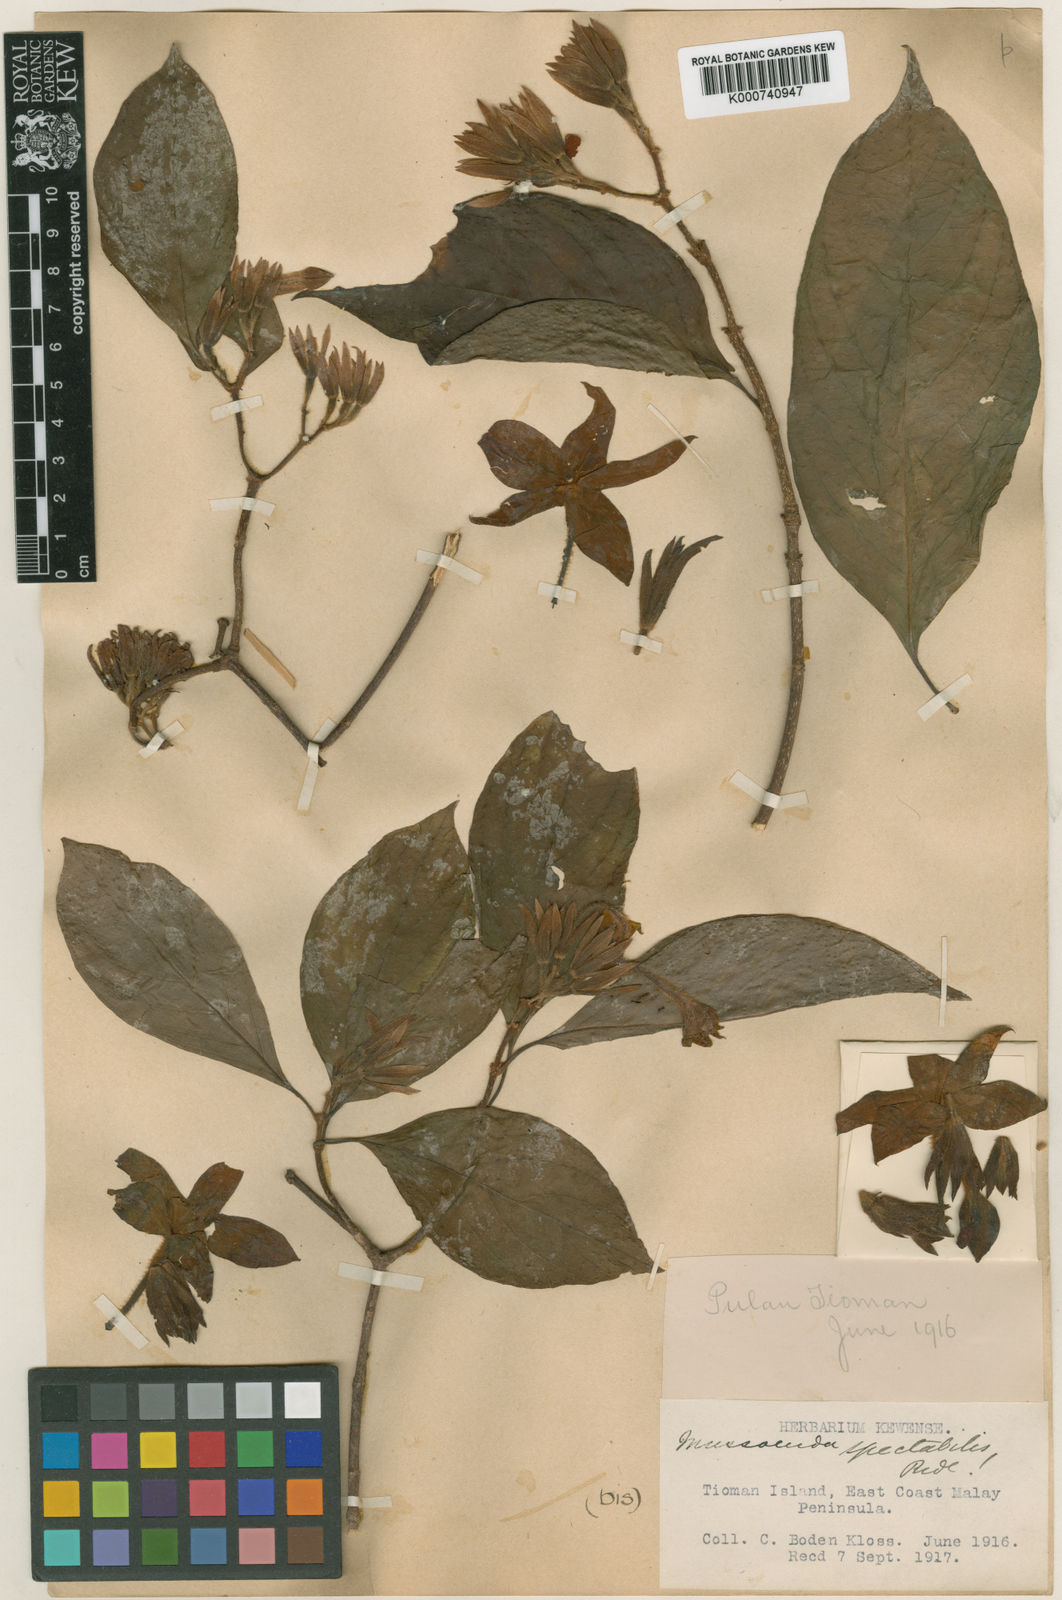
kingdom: Plantae
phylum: Tracheophyta
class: Magnoliopsida
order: Gentianales
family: Rubiaceae
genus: Mussaenda
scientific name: Mussaenda spectabilis
